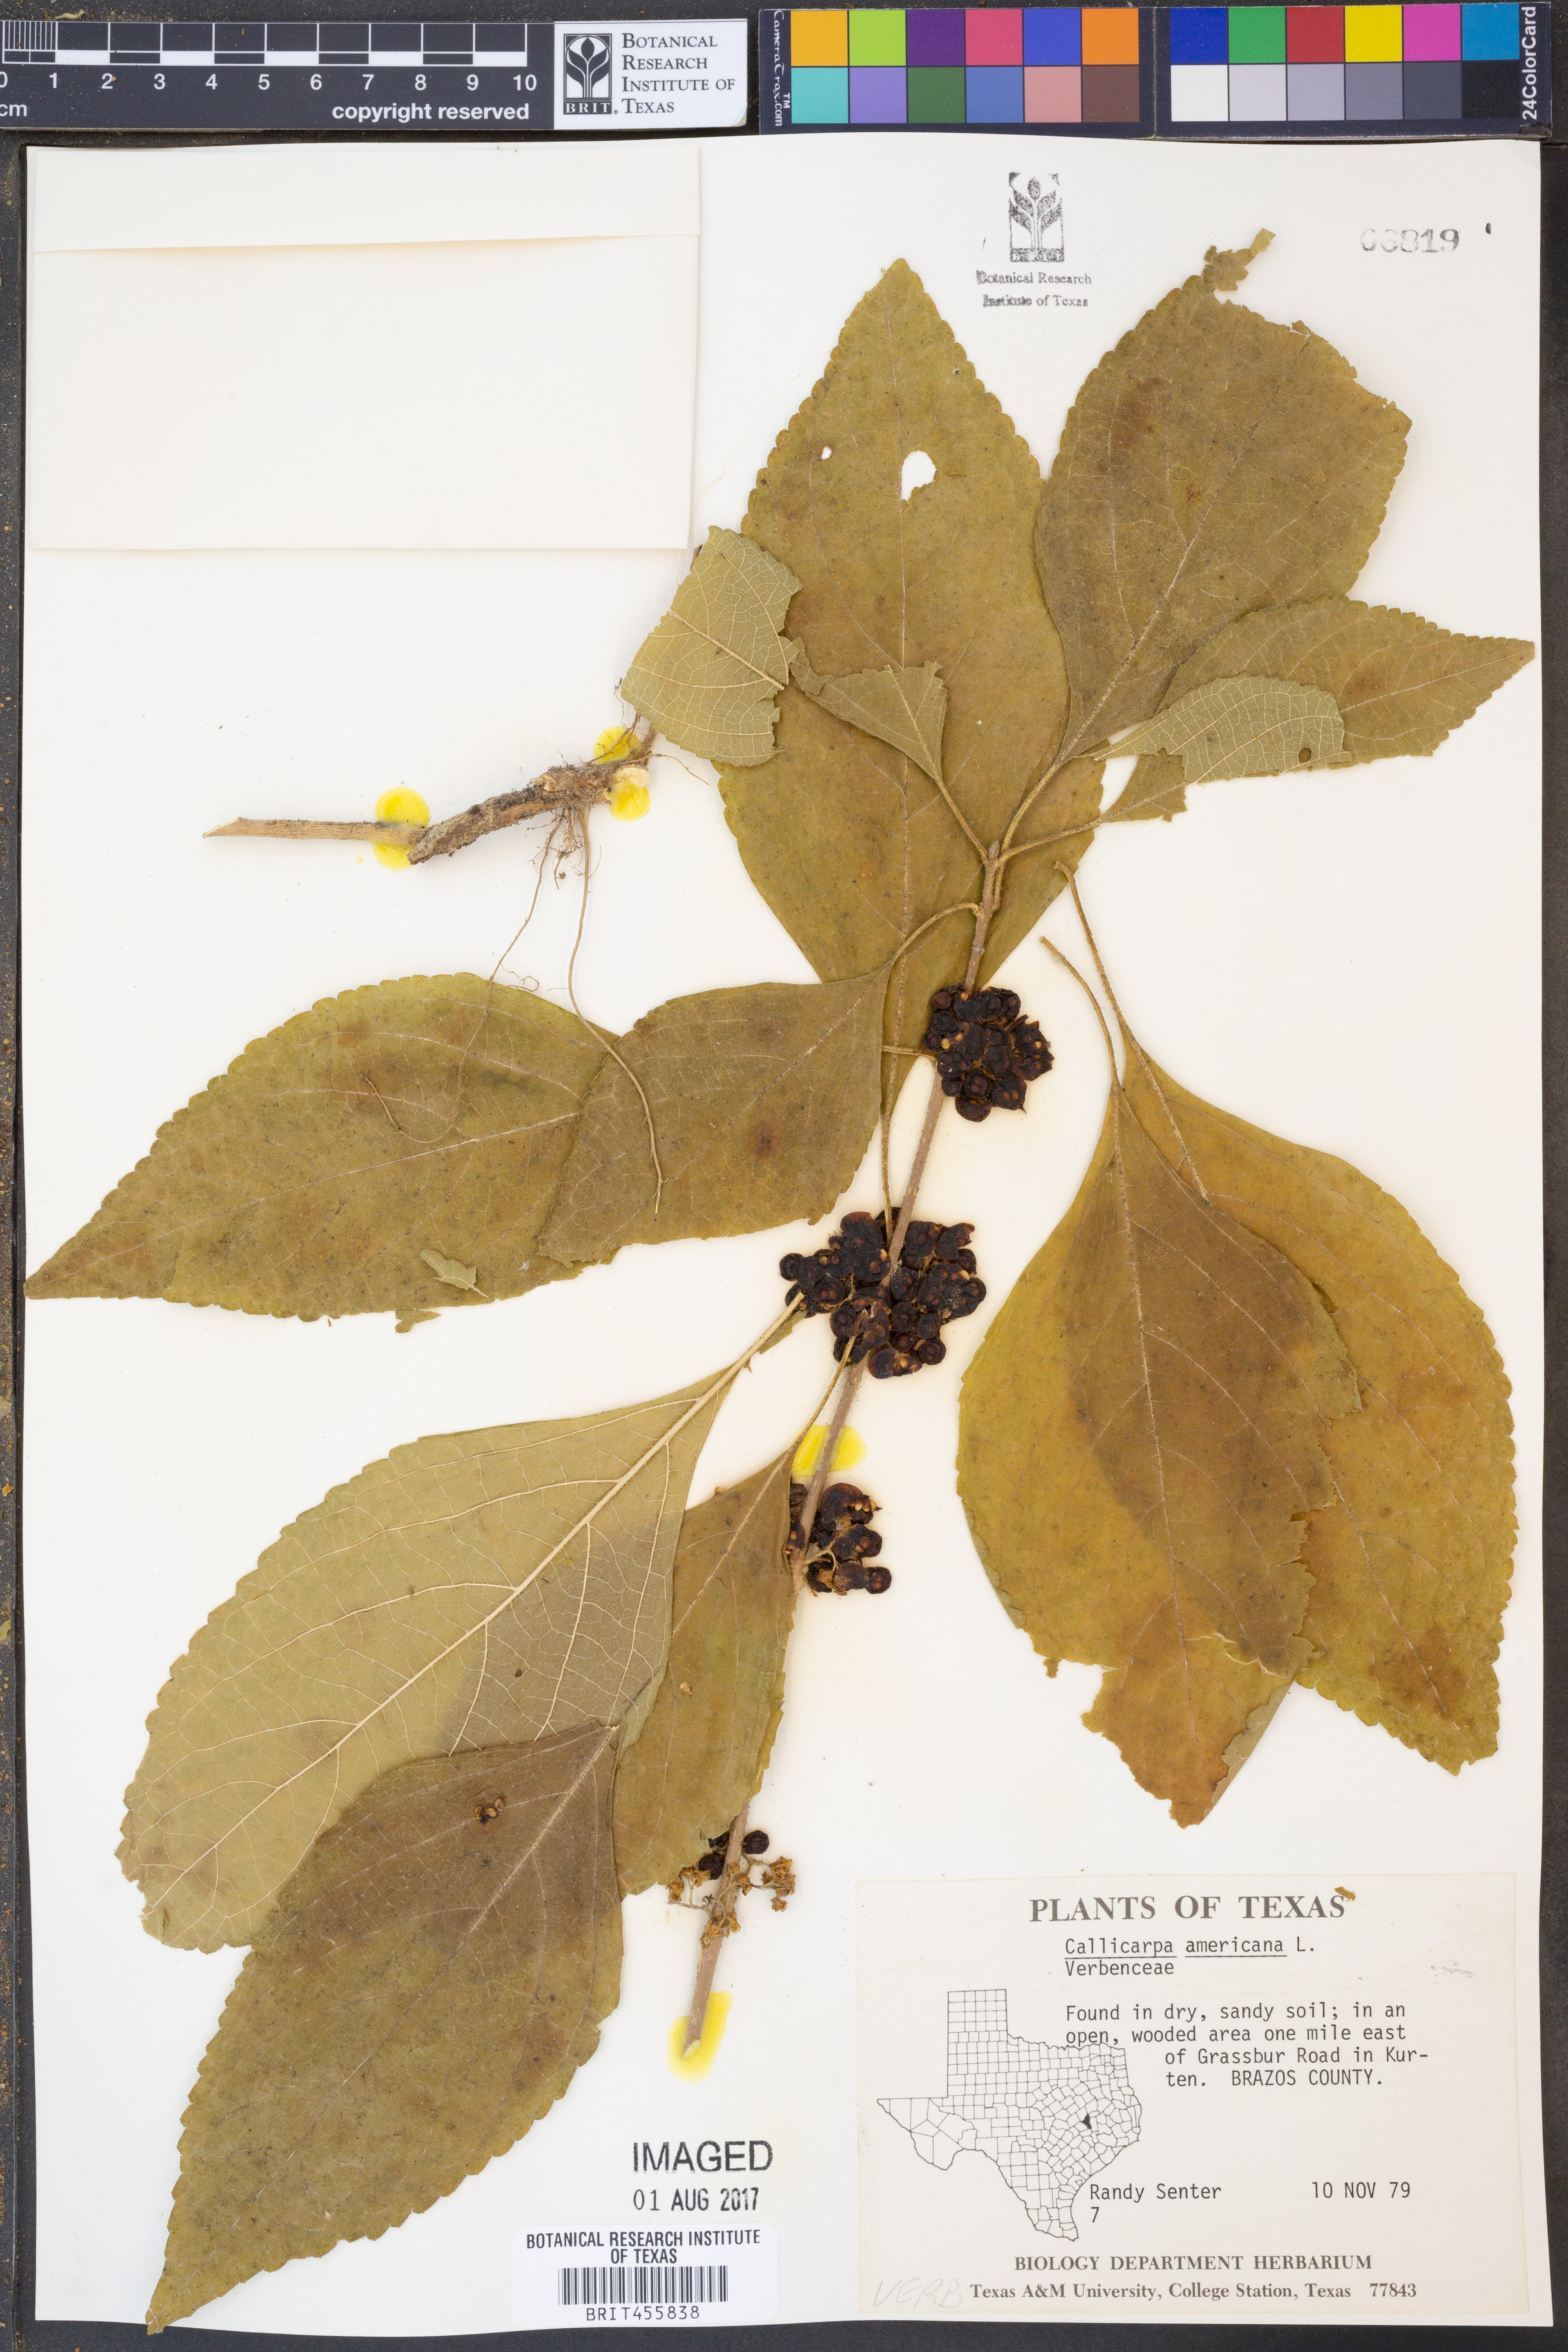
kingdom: Plantae
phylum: Tracheophyta
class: Magnoliopsida
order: Lamiales
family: Lamiaceae
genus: Callicarpa
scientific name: Callicarpa americana
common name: American beautyberry
